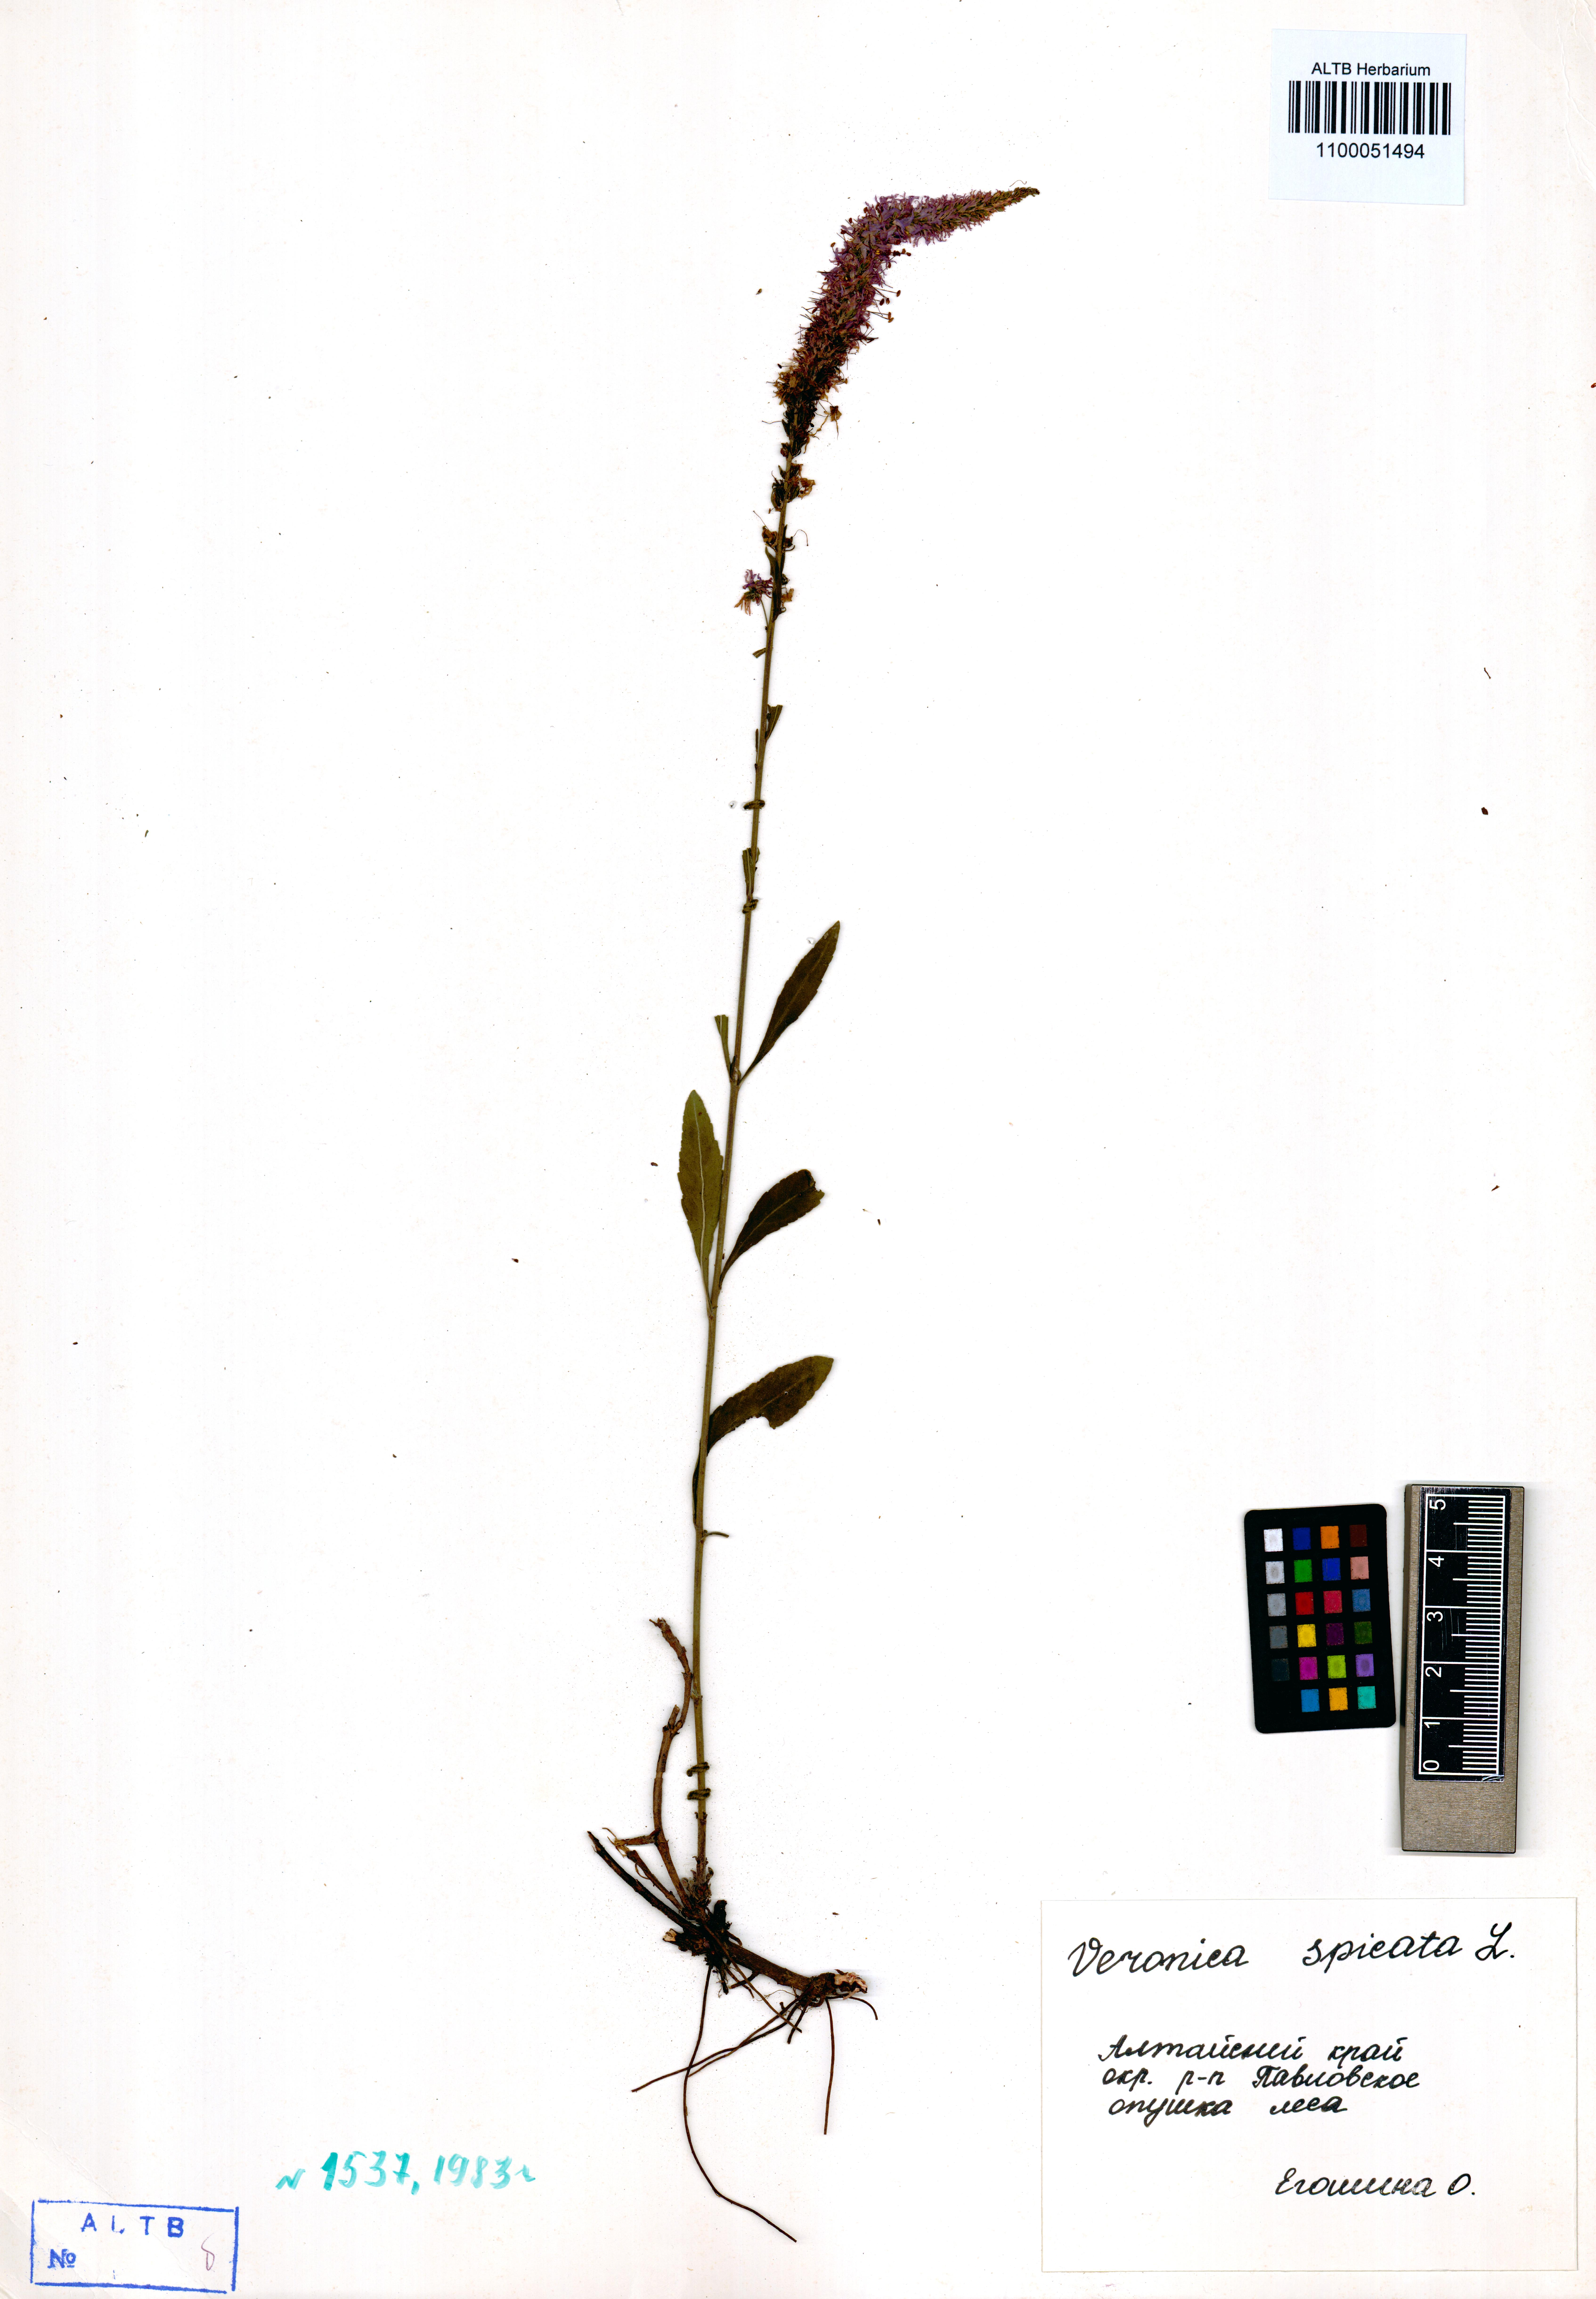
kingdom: Plantae
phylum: Tracheophyta
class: Magnoliopsida
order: Lamiales
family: Plantaginaceae
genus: Veronica
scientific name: Veronica spicata
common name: Spiked speedwell
